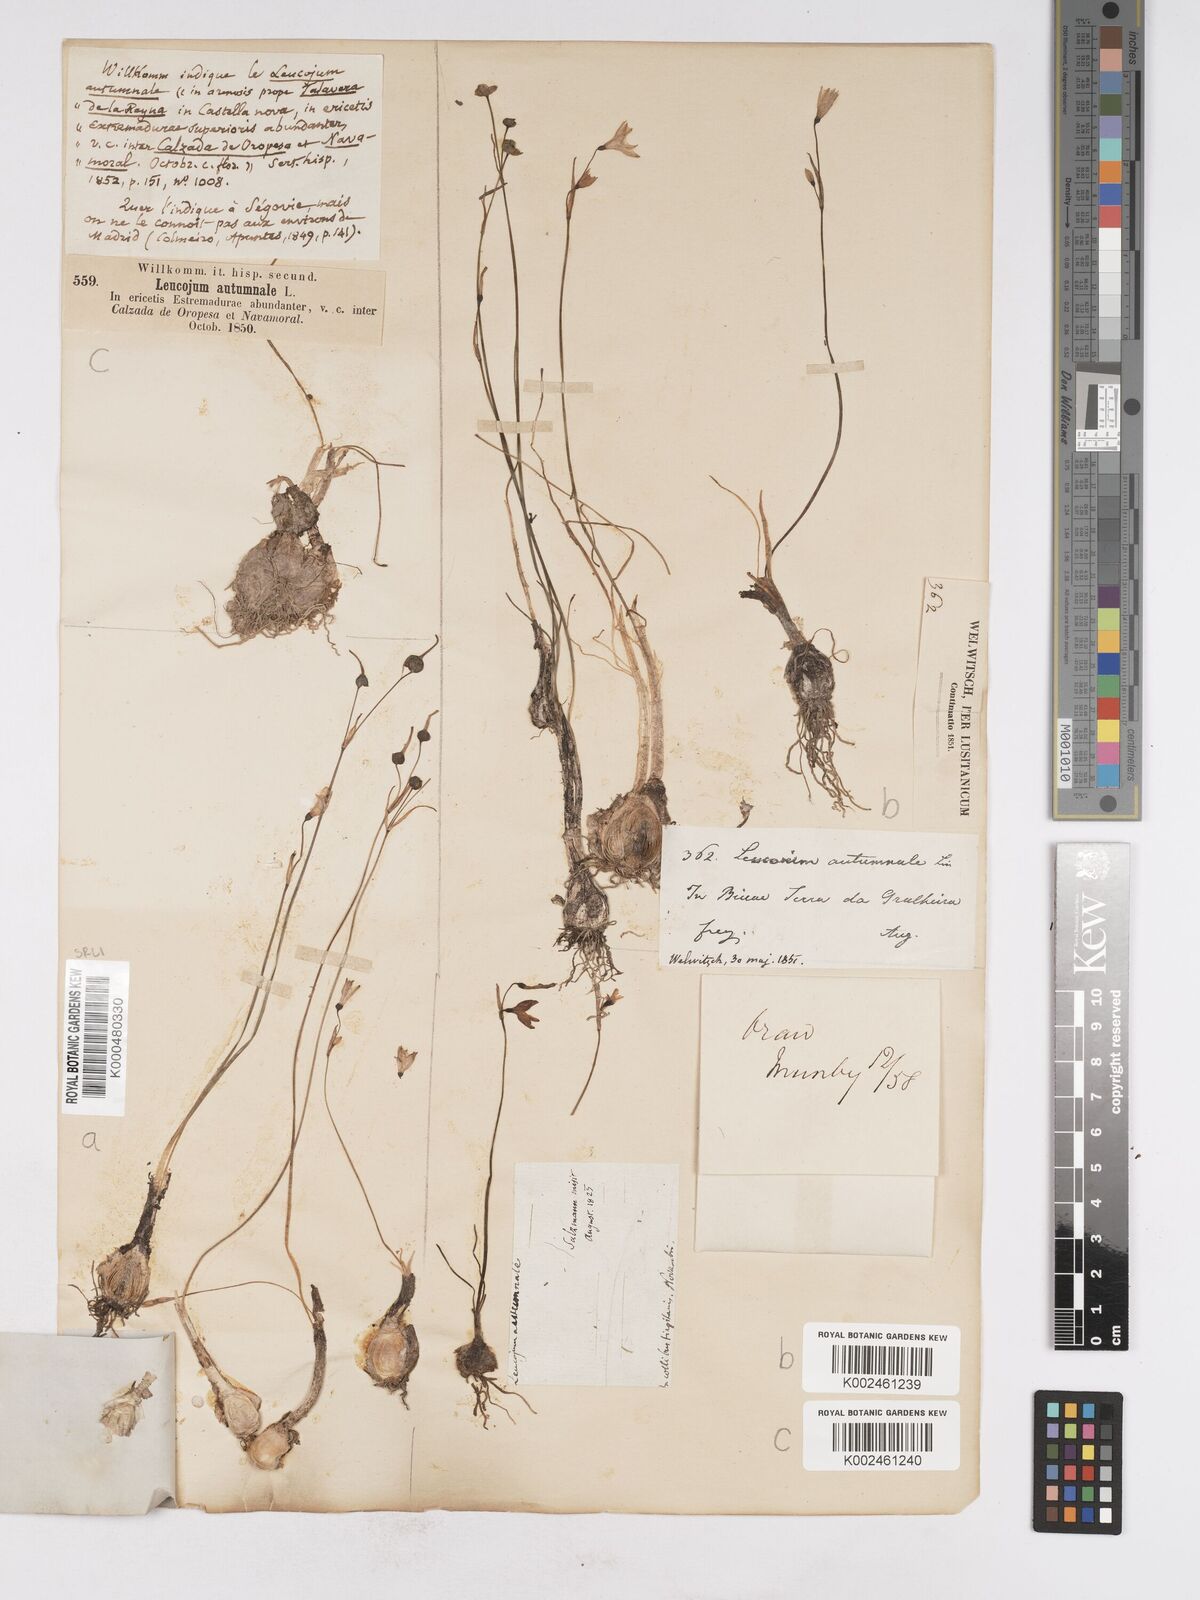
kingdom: Plantae
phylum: Tracheophyta
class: Liliopsida
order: Asparagales
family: Amaryllidaceae
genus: Acis
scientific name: Acis autumnalis
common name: Autumn snowflake
